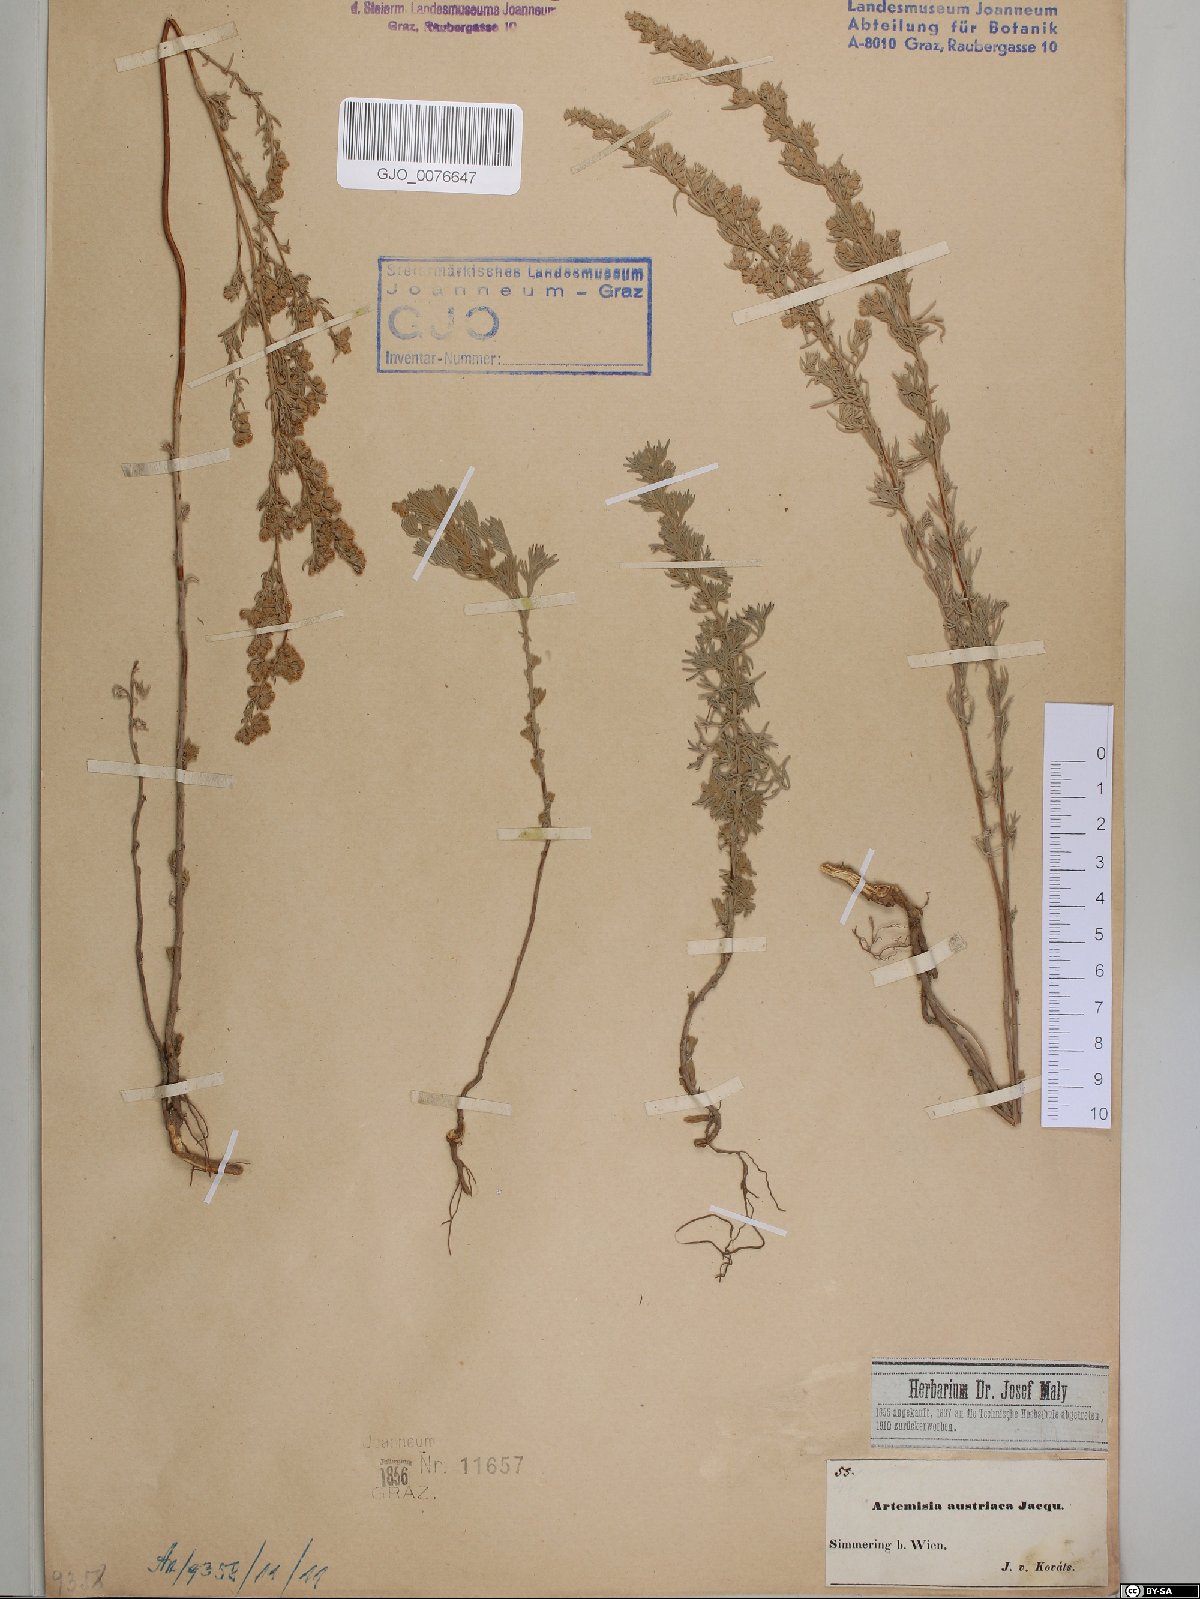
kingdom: Plantae
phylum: Tracheophyta
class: Magnoliopsida
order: Asterales
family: Asteraceae
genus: Artemisia
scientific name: Artemisia austriaca
